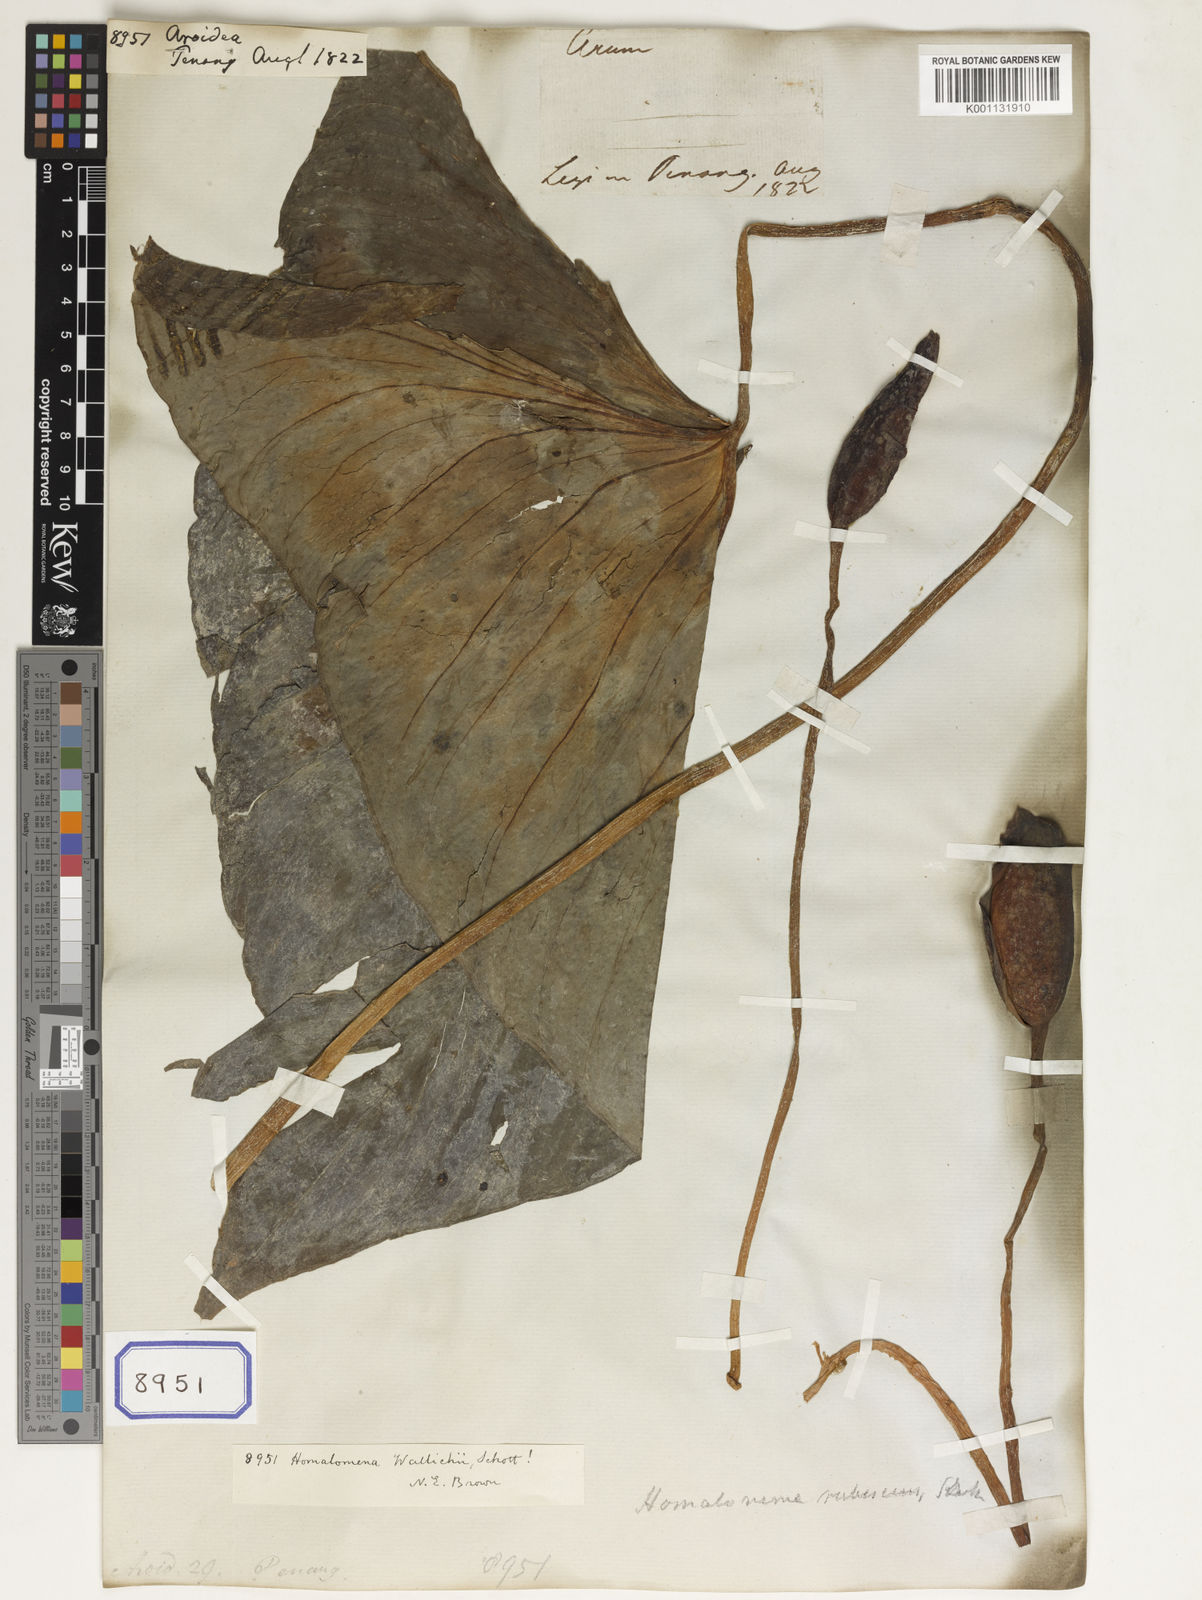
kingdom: Plantae
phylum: Tracheophyta
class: Liliopsida
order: Alismatales
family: Araceae
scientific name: Araceae
